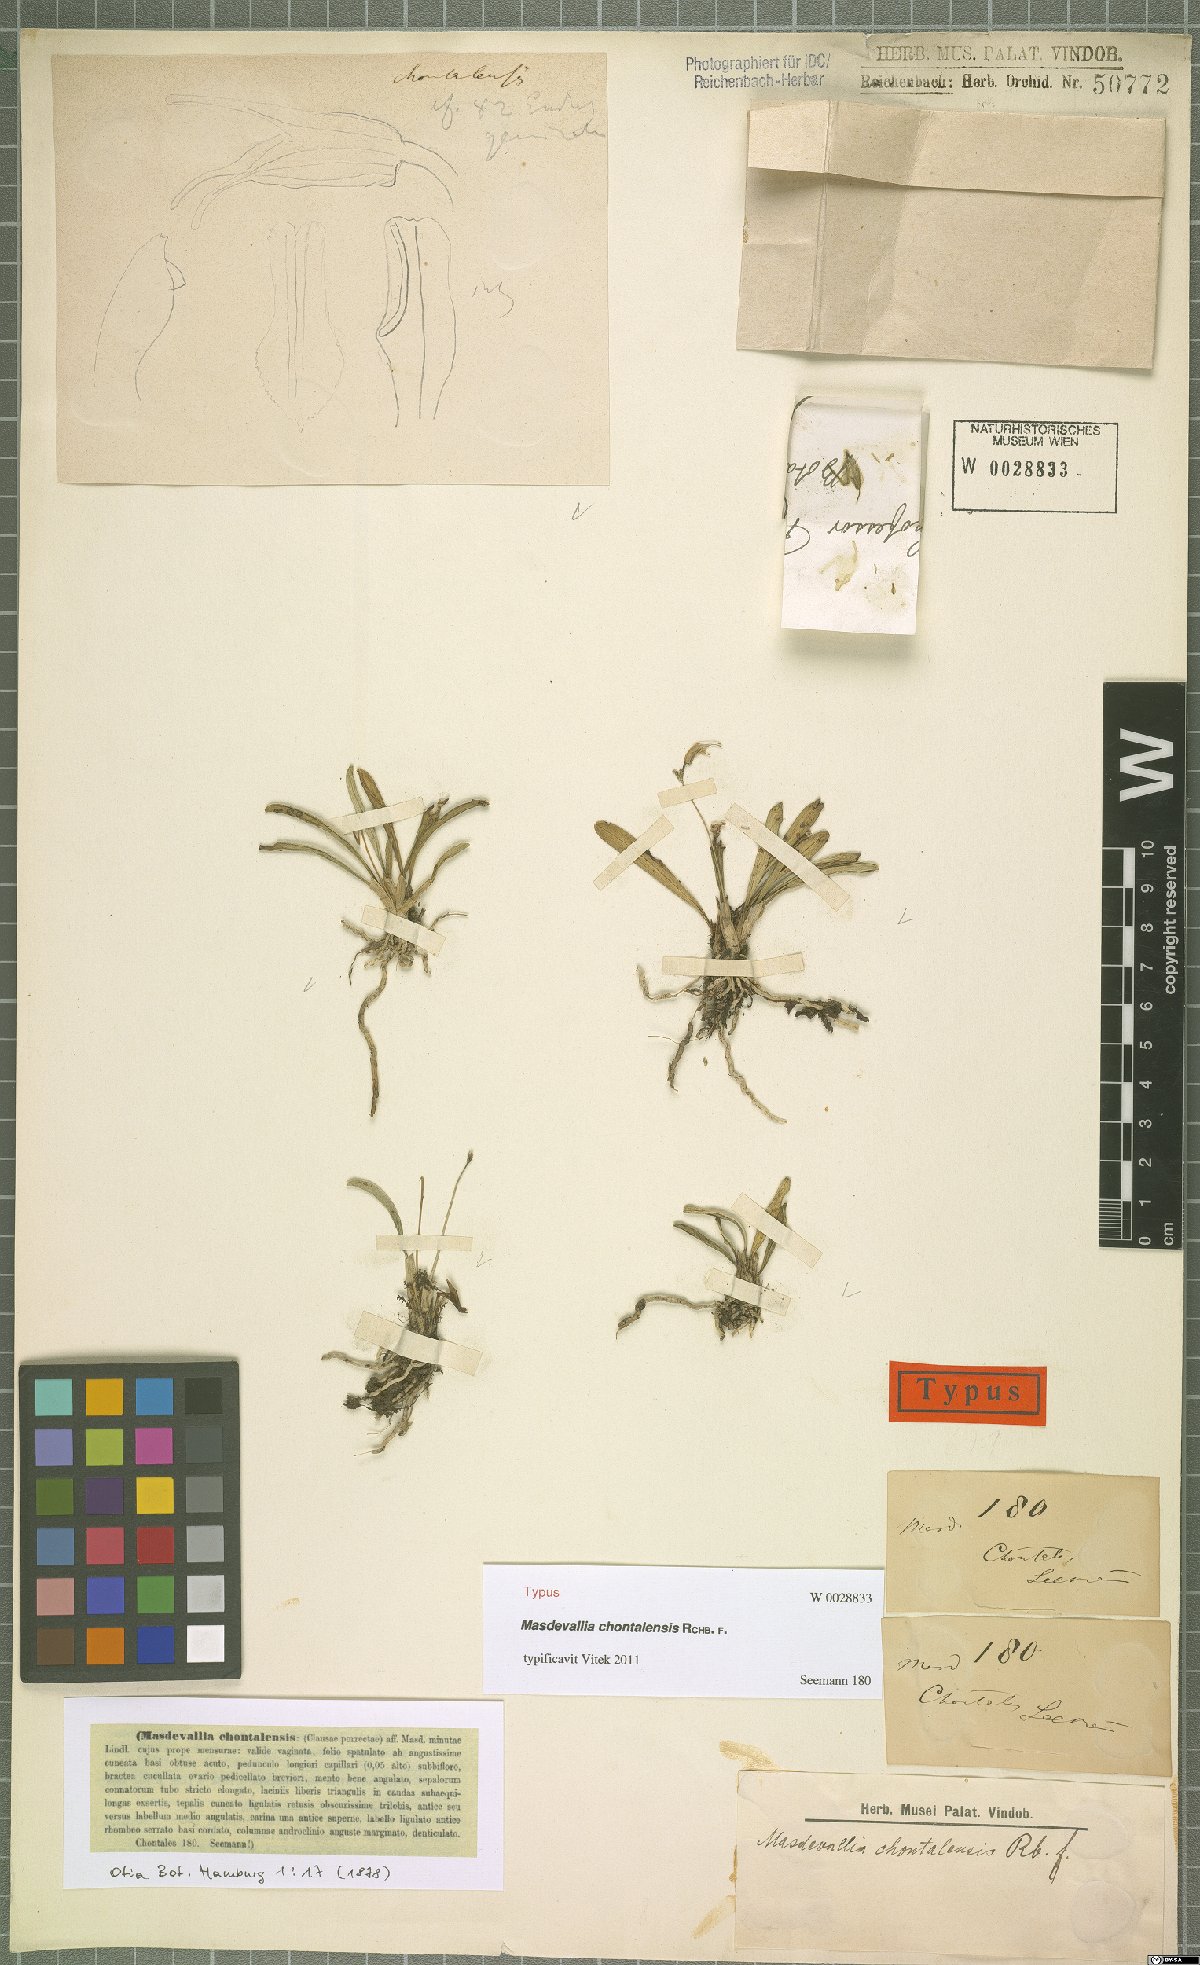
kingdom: Plantae
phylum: Tracheophyta
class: Liliopsida
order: Asparagales
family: Orchidaceae
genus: Masdevallia
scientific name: Masdevallia chontalensis
